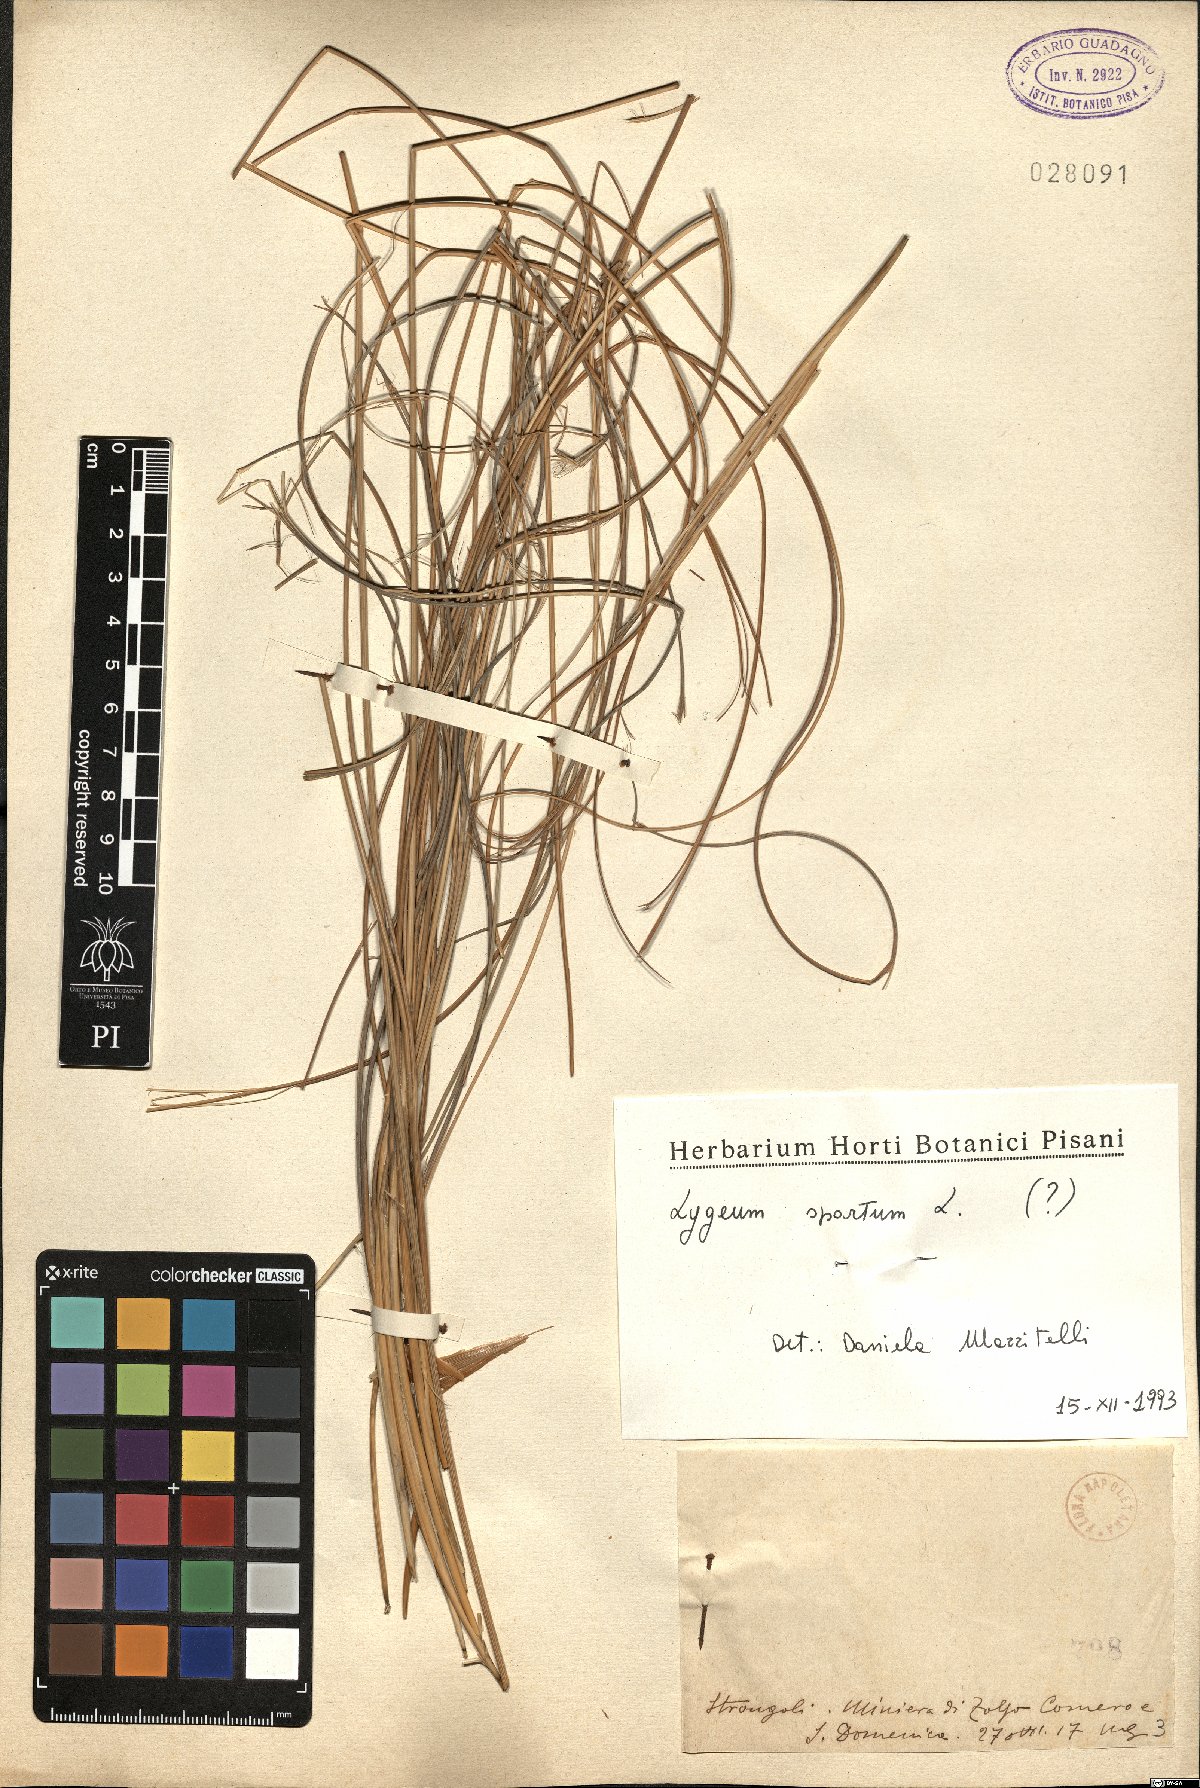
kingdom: Plantae
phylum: Tracheophyta
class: Liliopsida
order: Poales
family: Poaceae
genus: Lygeum
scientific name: Lygeum spartum
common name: Albardine
